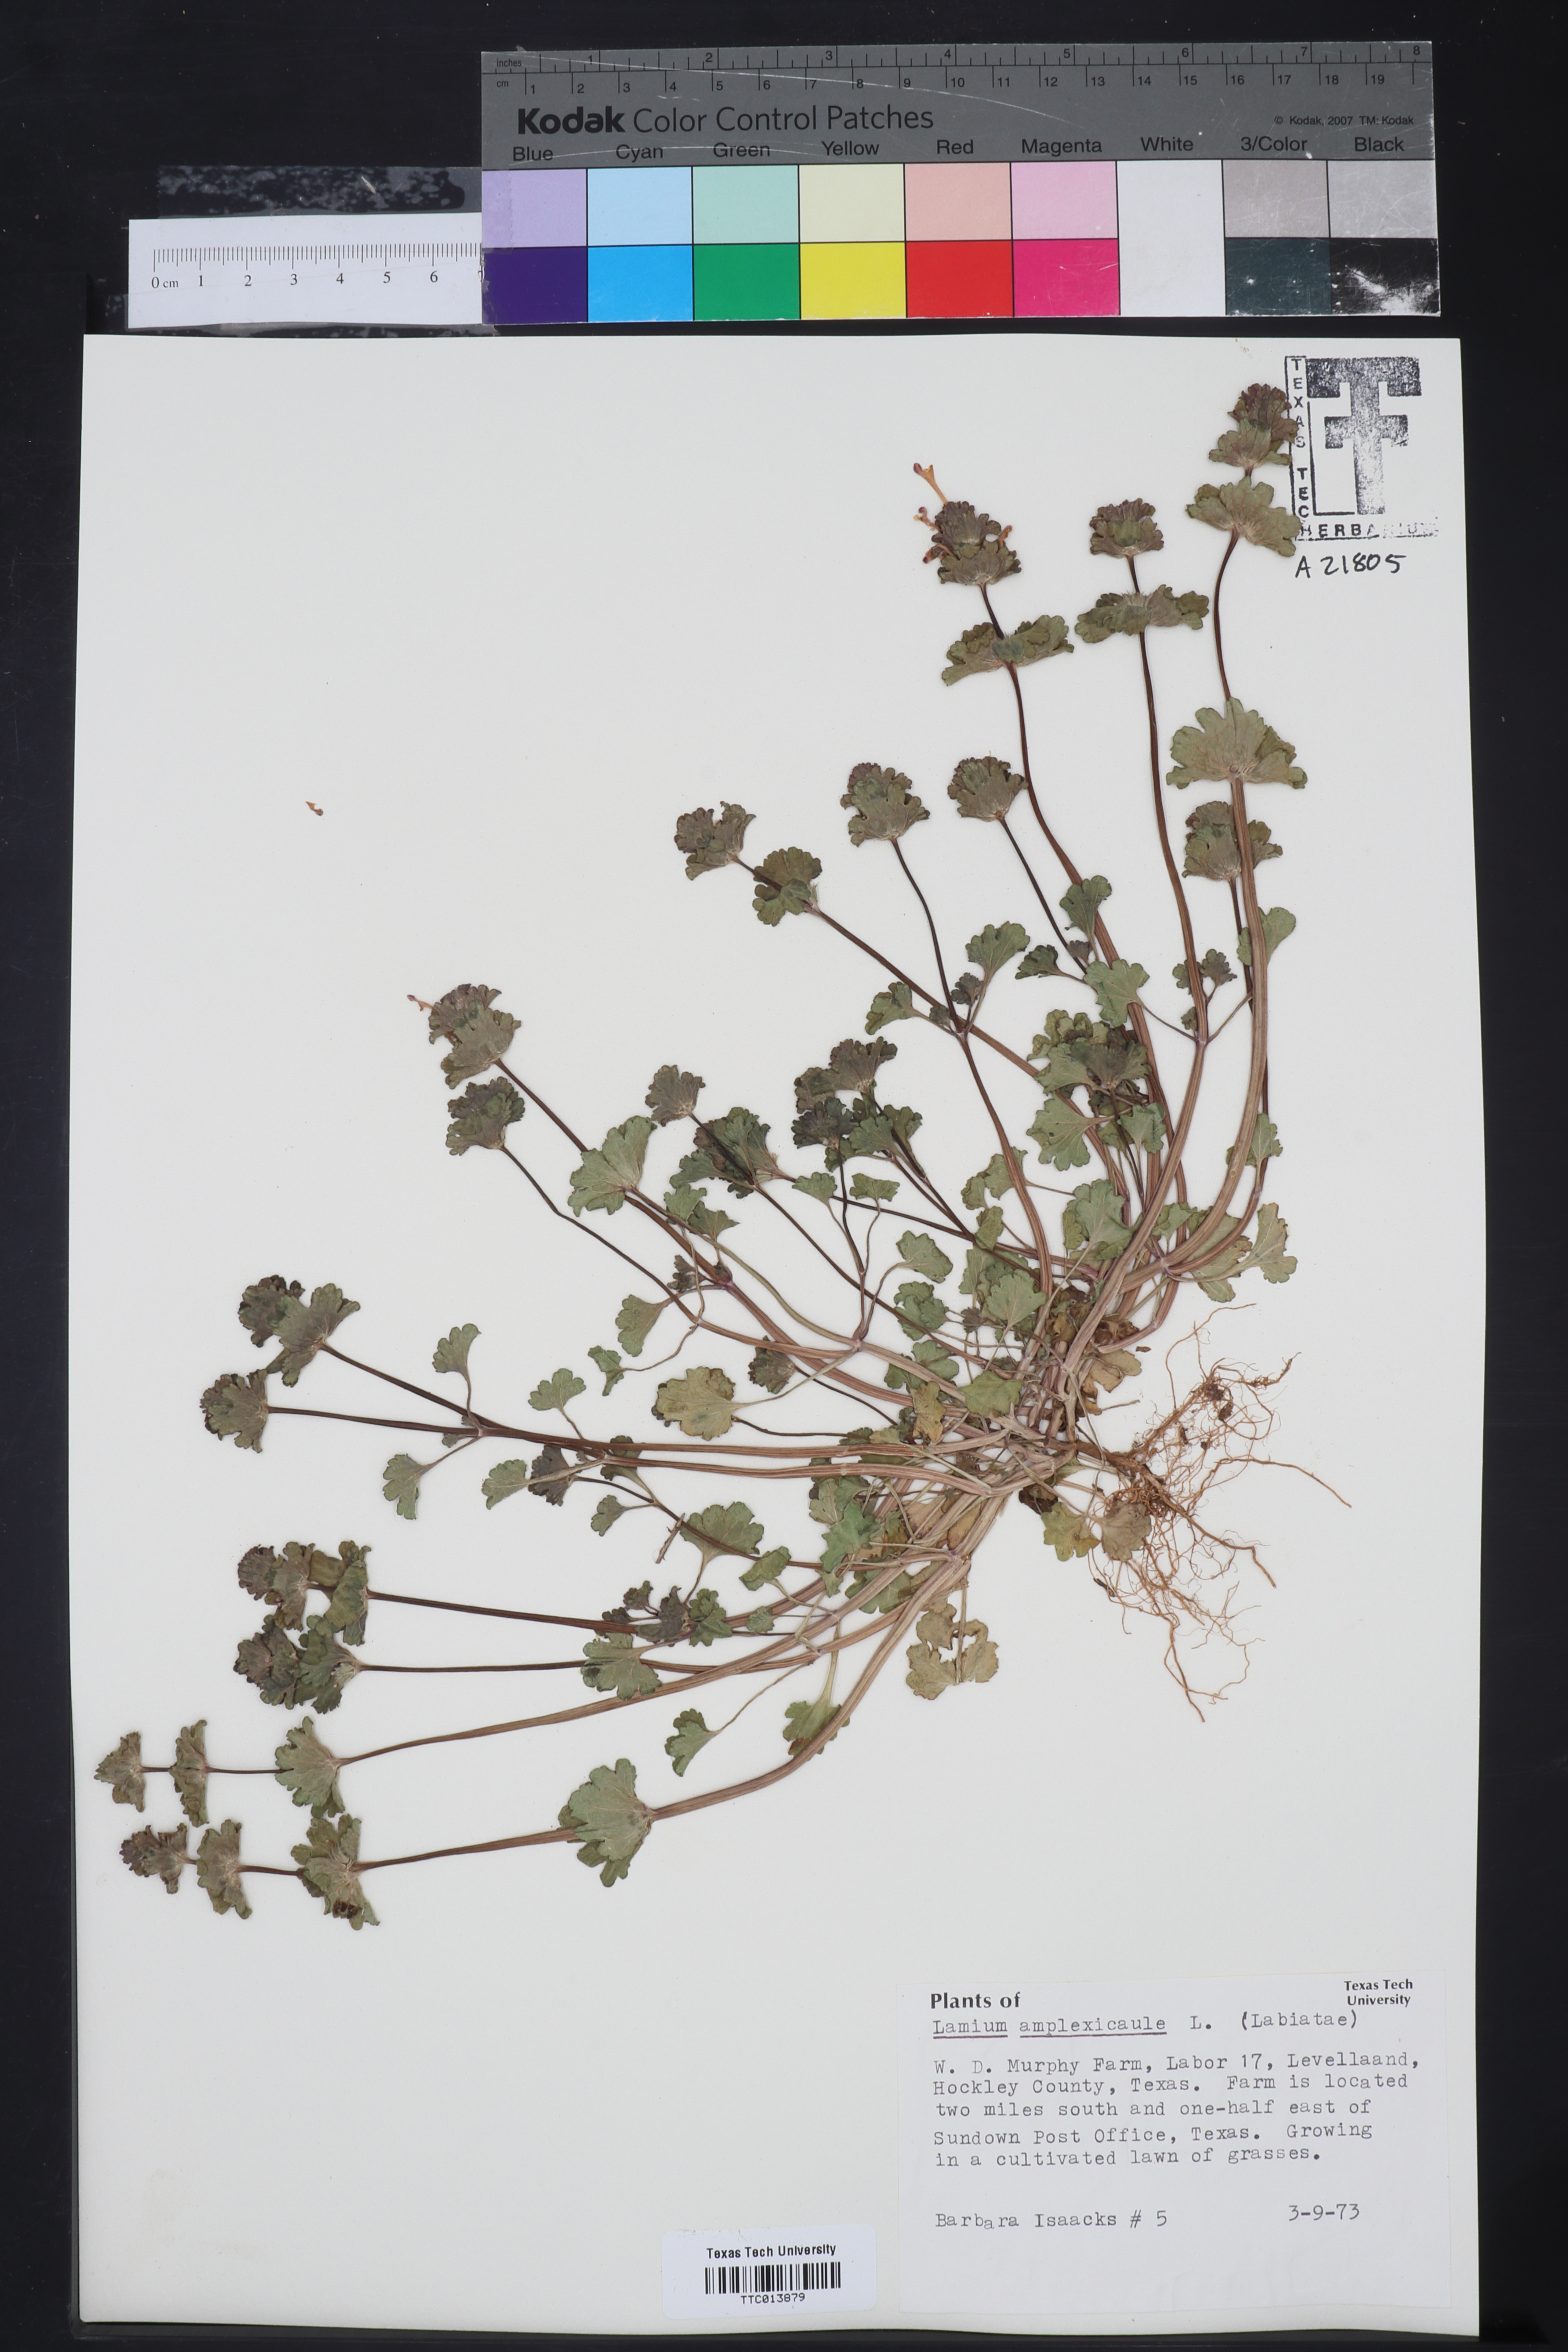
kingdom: Plantae
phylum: Tracheophyta
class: Magnoliopsida
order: Lamiales
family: Lamiaceae
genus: Lamium
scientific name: Lamium amplexicaule
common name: Henbit dead-nettle
